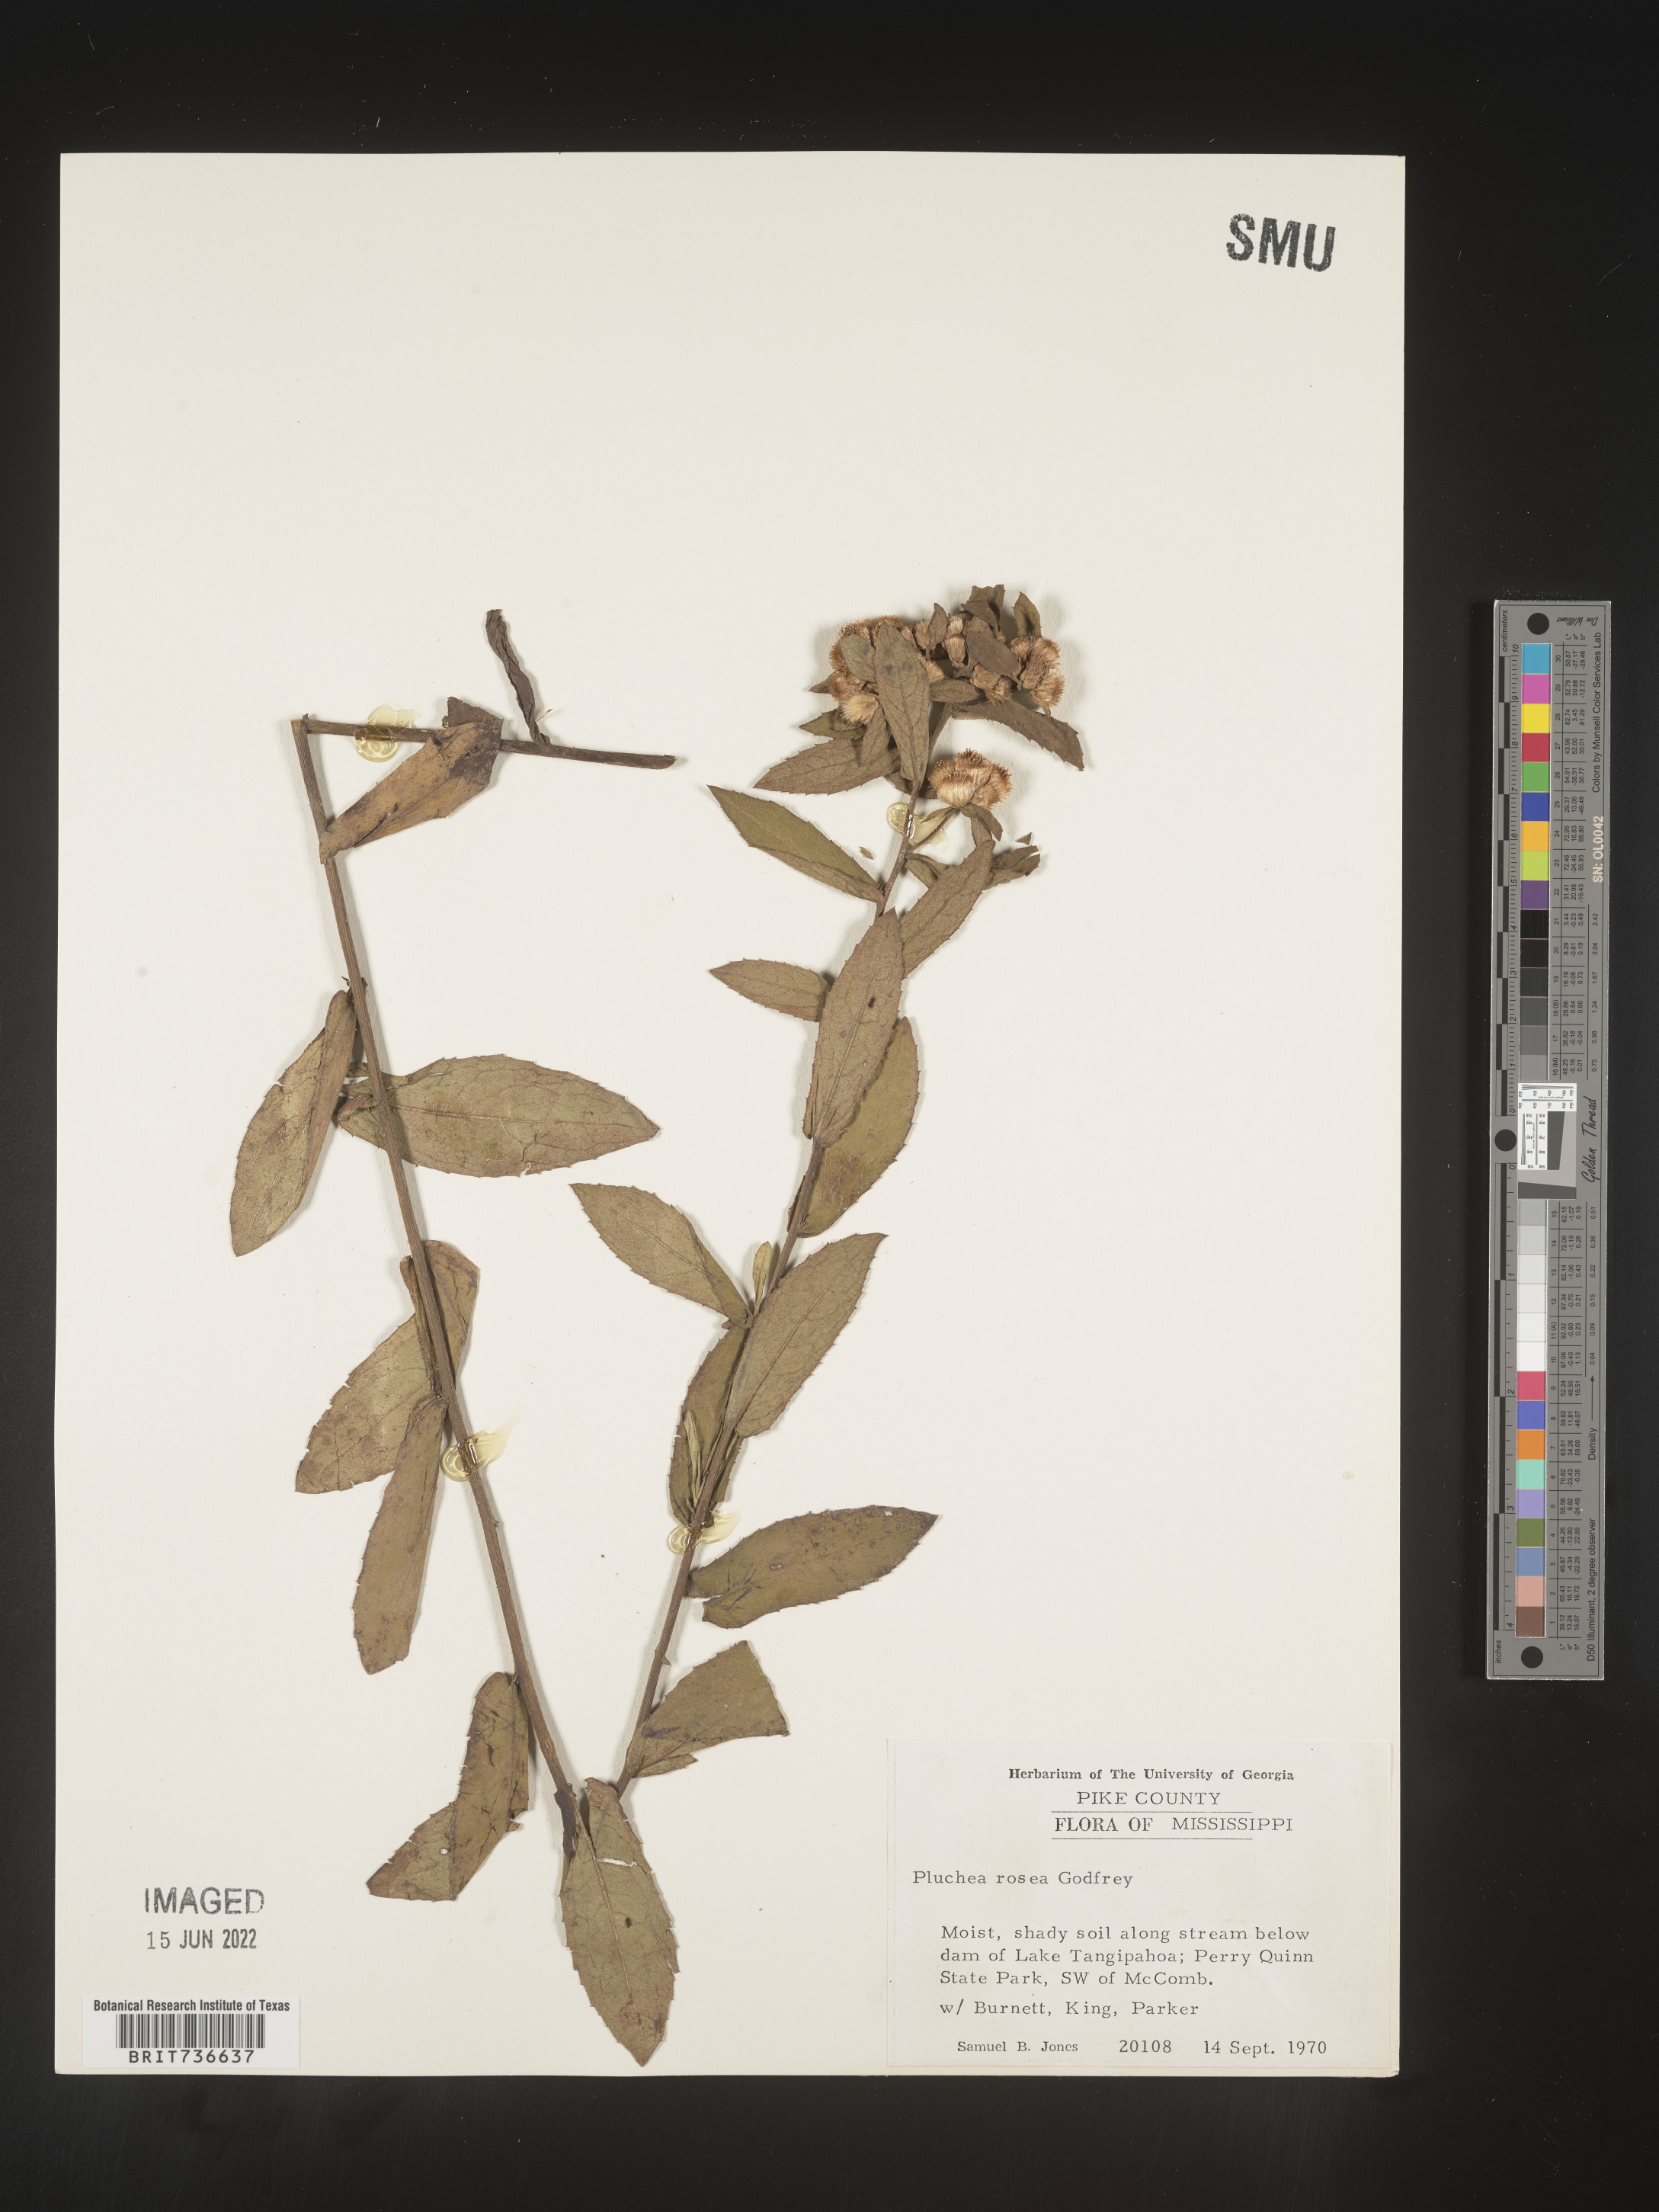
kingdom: Plantae
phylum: Tracheophyta
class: Magnoliopsida
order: Asterales
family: Asteraceae
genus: Pluchea
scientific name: Pluchea foetida
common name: Stinking camphorweed
